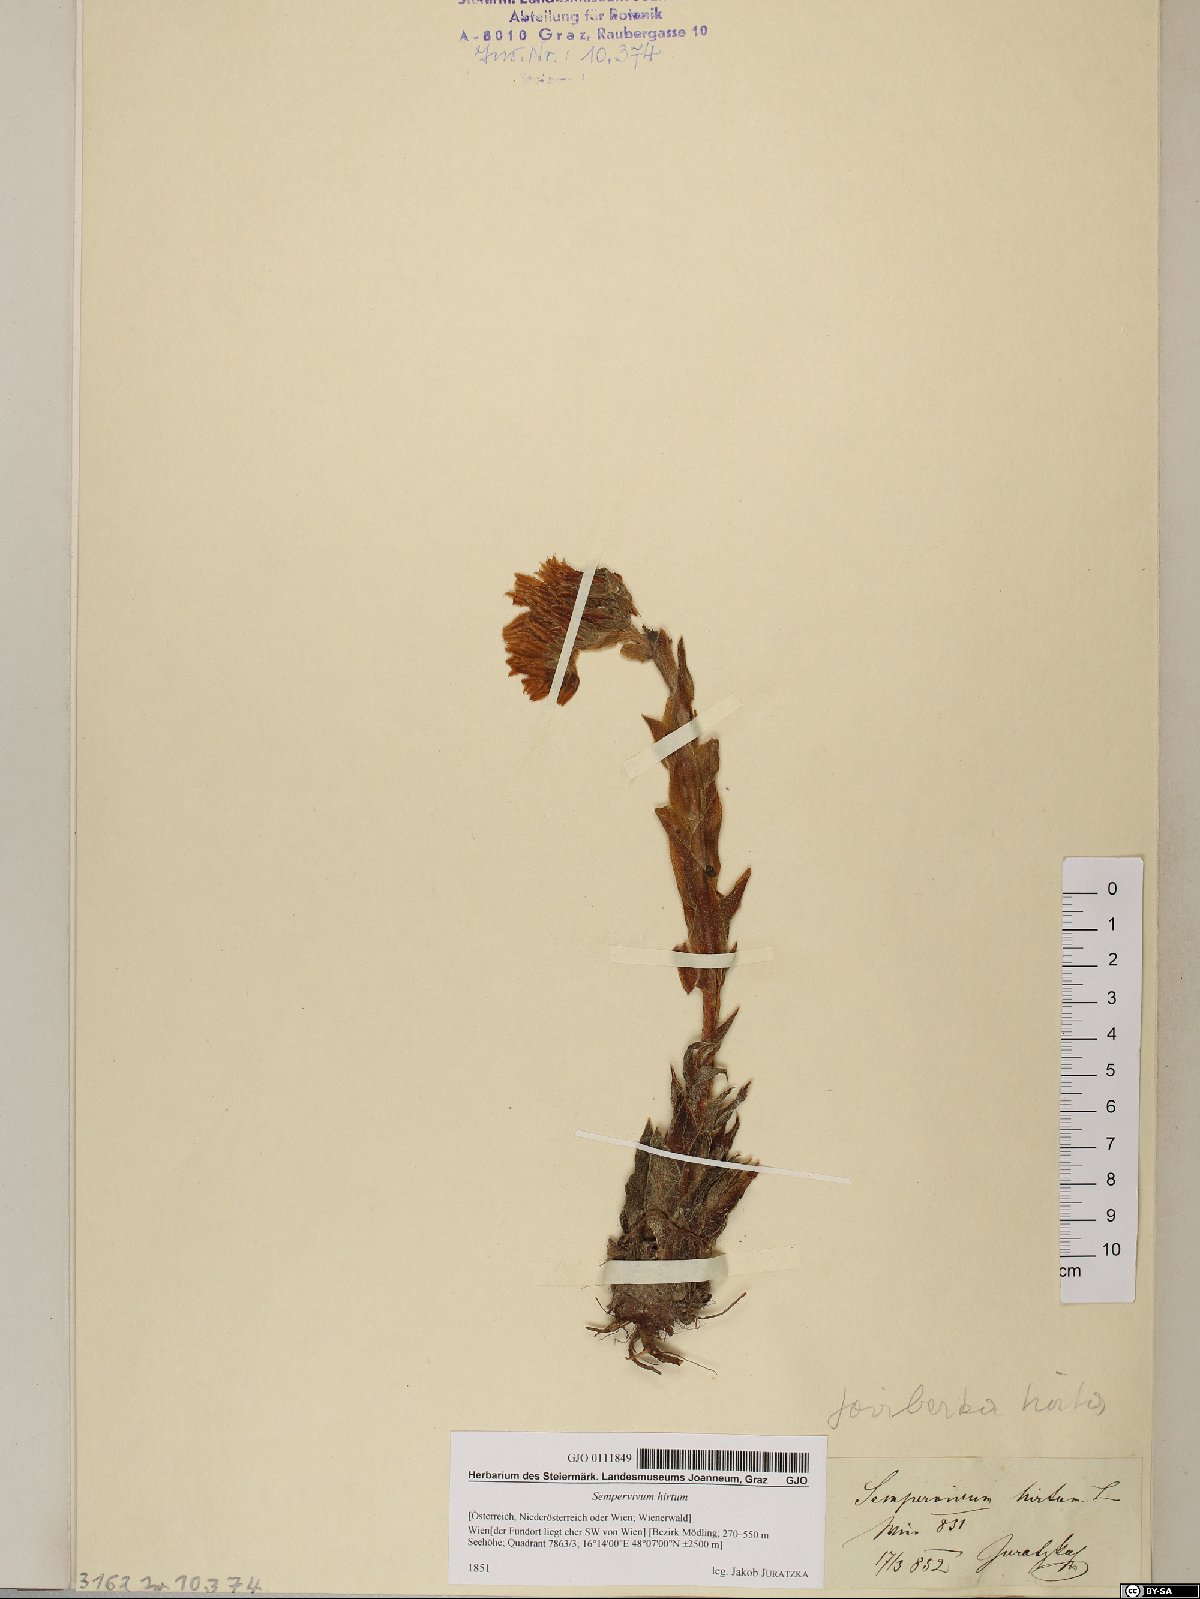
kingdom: Plantae
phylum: Tracheophyta
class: Magnoliopsida
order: Saxifragales
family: Crassulaceae
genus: Sempervivum
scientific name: Sempervivum globiferum
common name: Rolling hen-and-chicks
